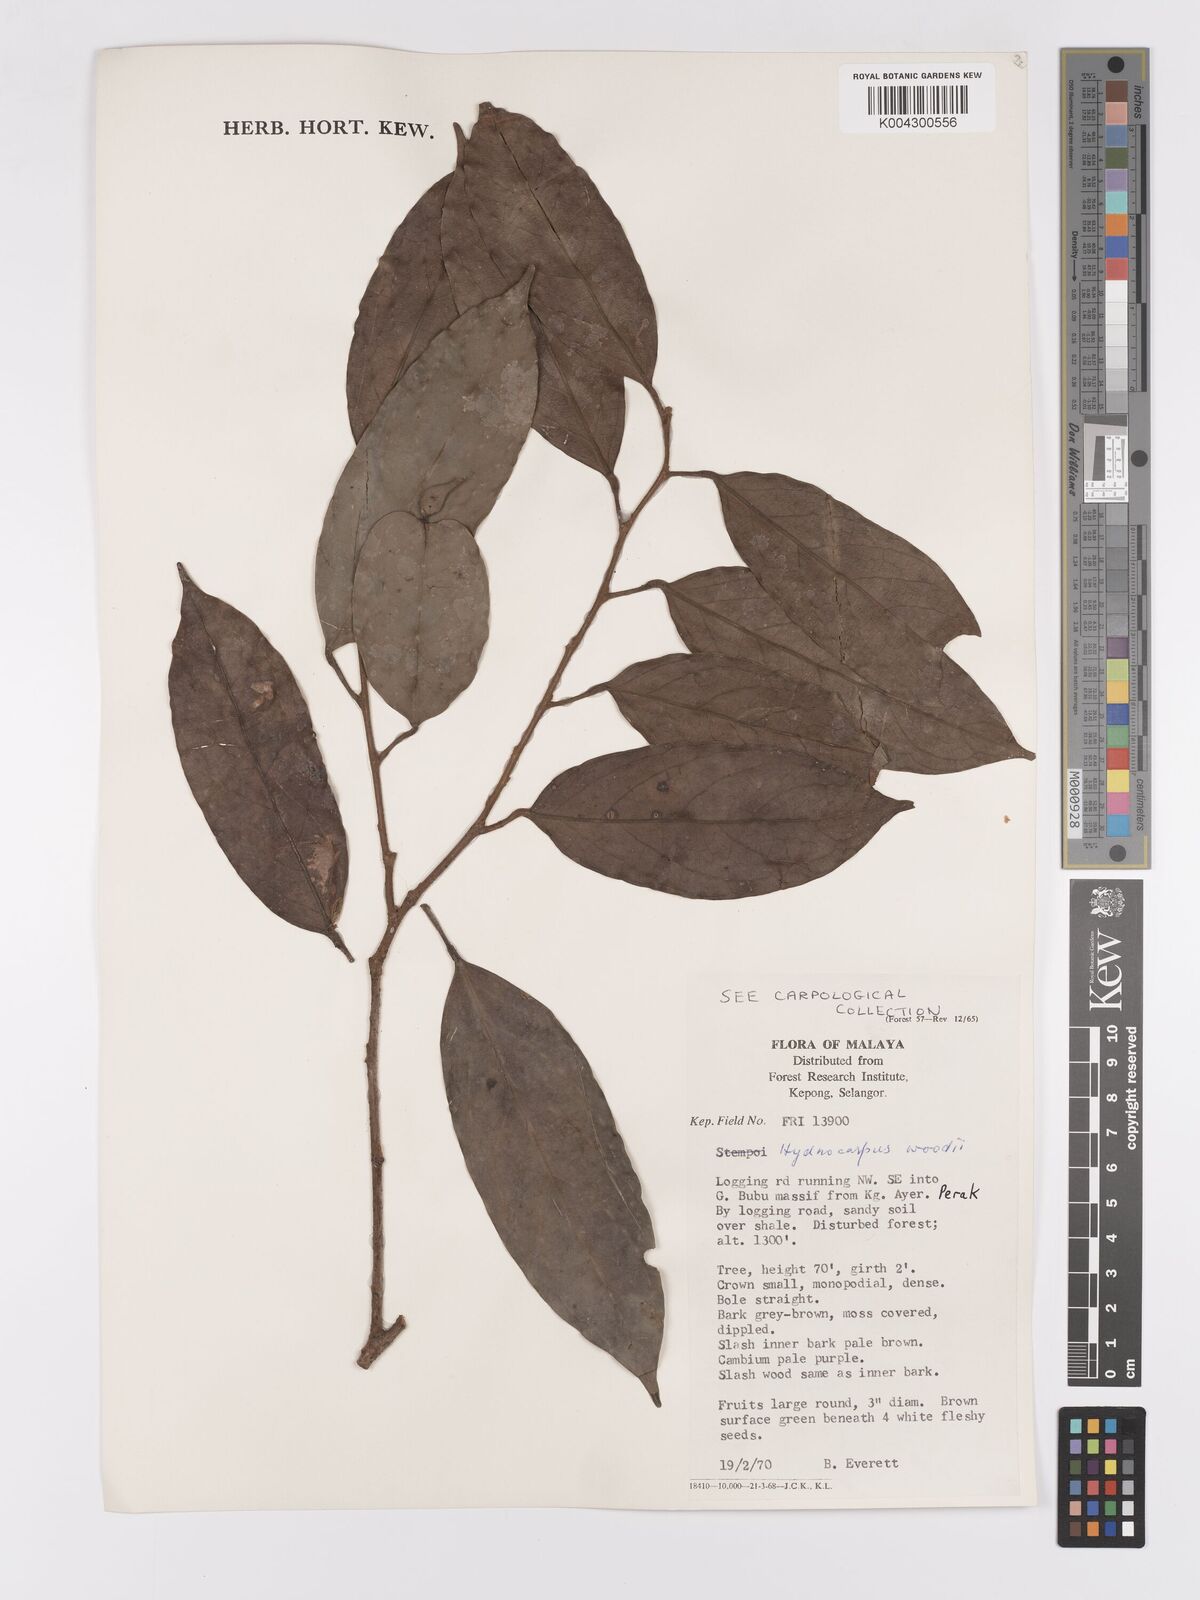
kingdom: Plantae
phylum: Tracheophyta
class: Magnoliopsida
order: Malpighiales
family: Achariaceae
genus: Hydnocarpus
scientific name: Hydnocarpus woodii
